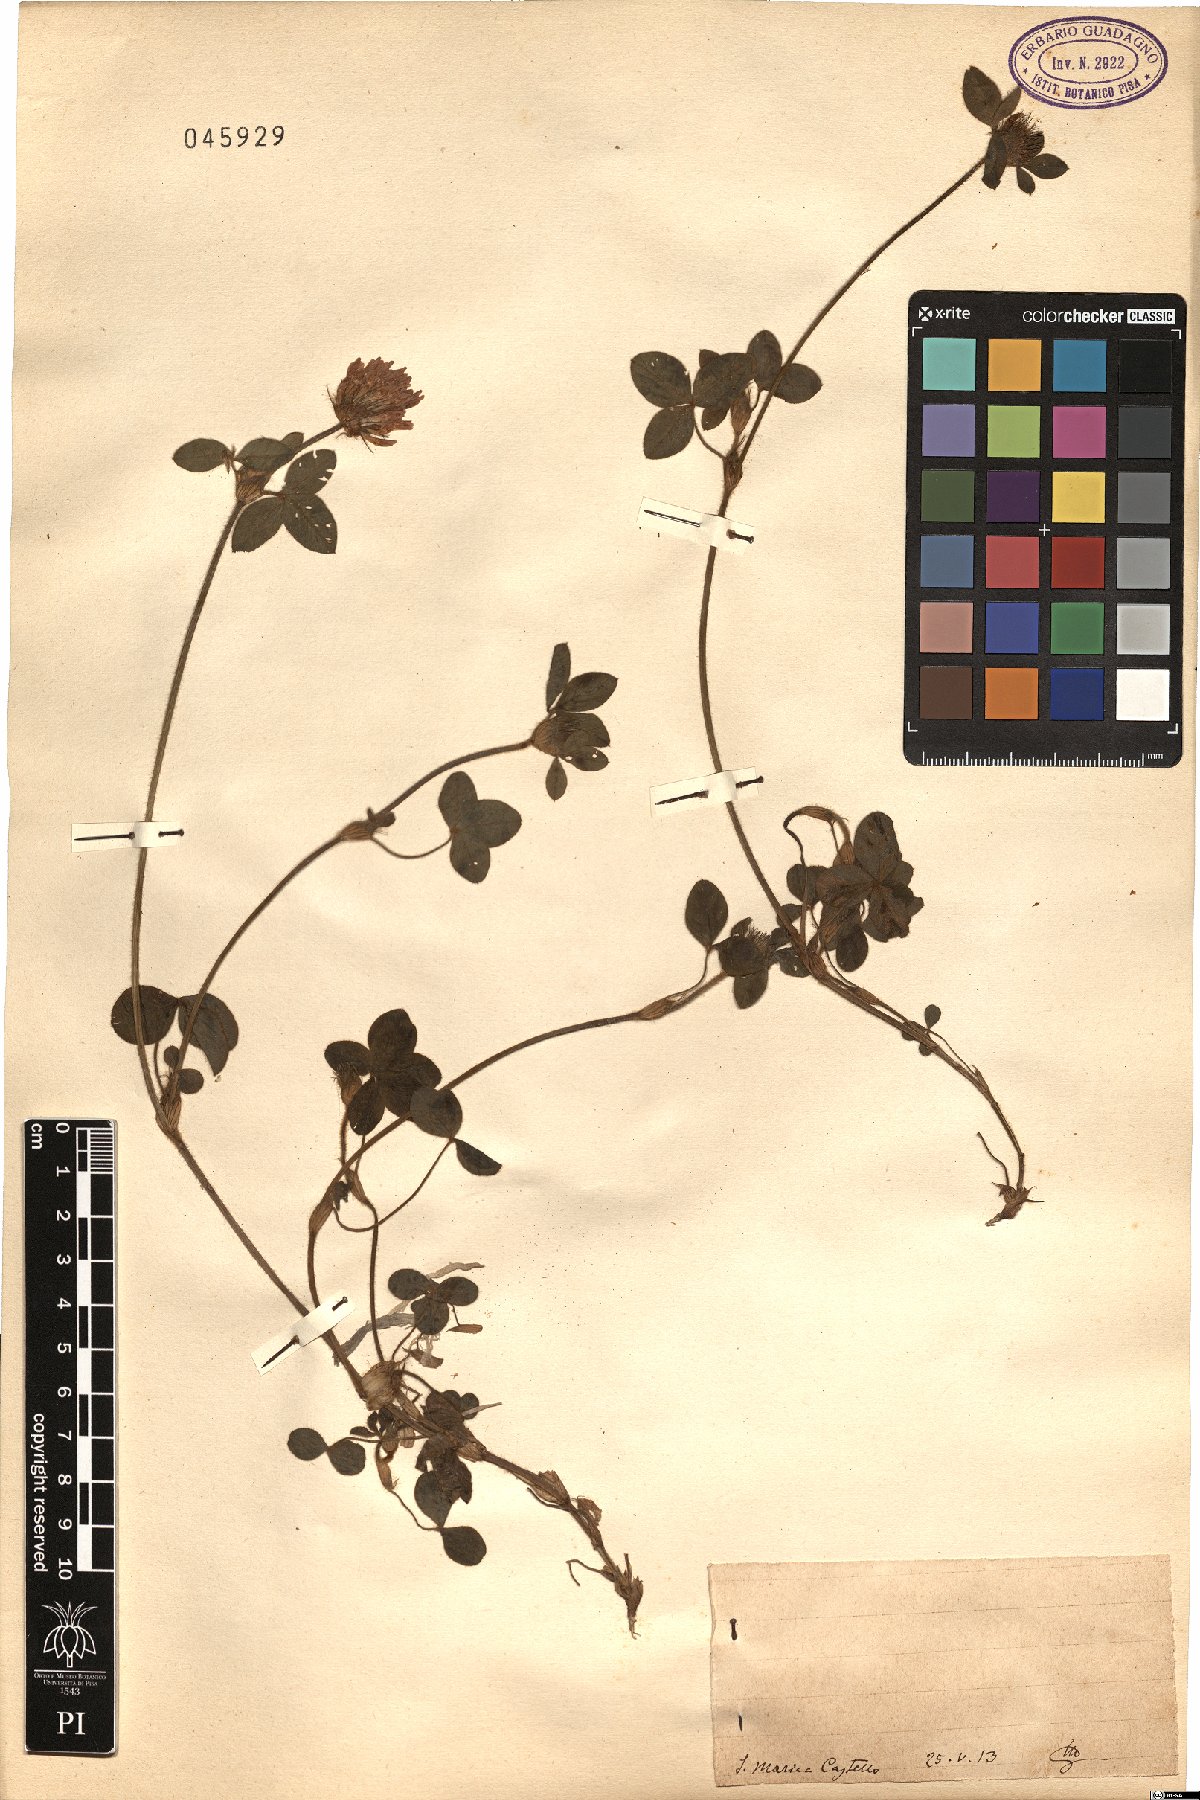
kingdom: Plantae
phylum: Tracheophyta
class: Magnoliopsida
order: Fabales
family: Fabaceae
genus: Trifolium
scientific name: Trifolium
